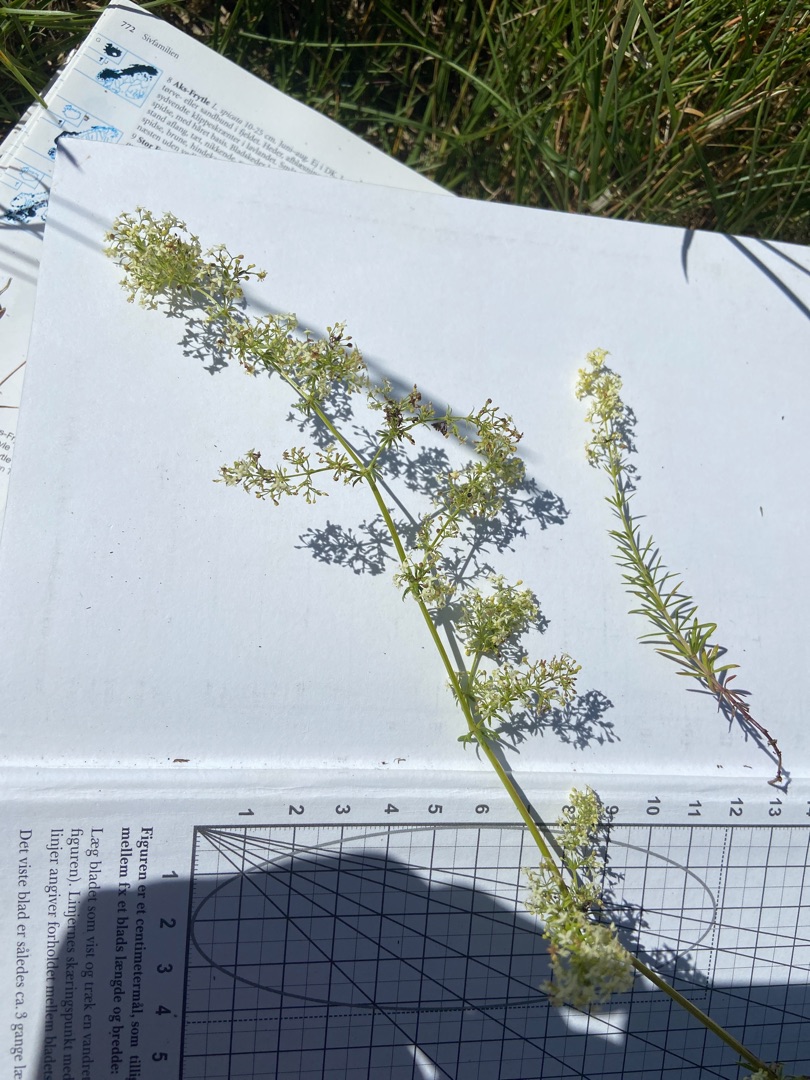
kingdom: Plantae
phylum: Tracheophyta
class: Magnoliopsida
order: Gentianales
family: Rubiaceae
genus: Galium
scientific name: Galium album
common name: Smalbladet snerre
